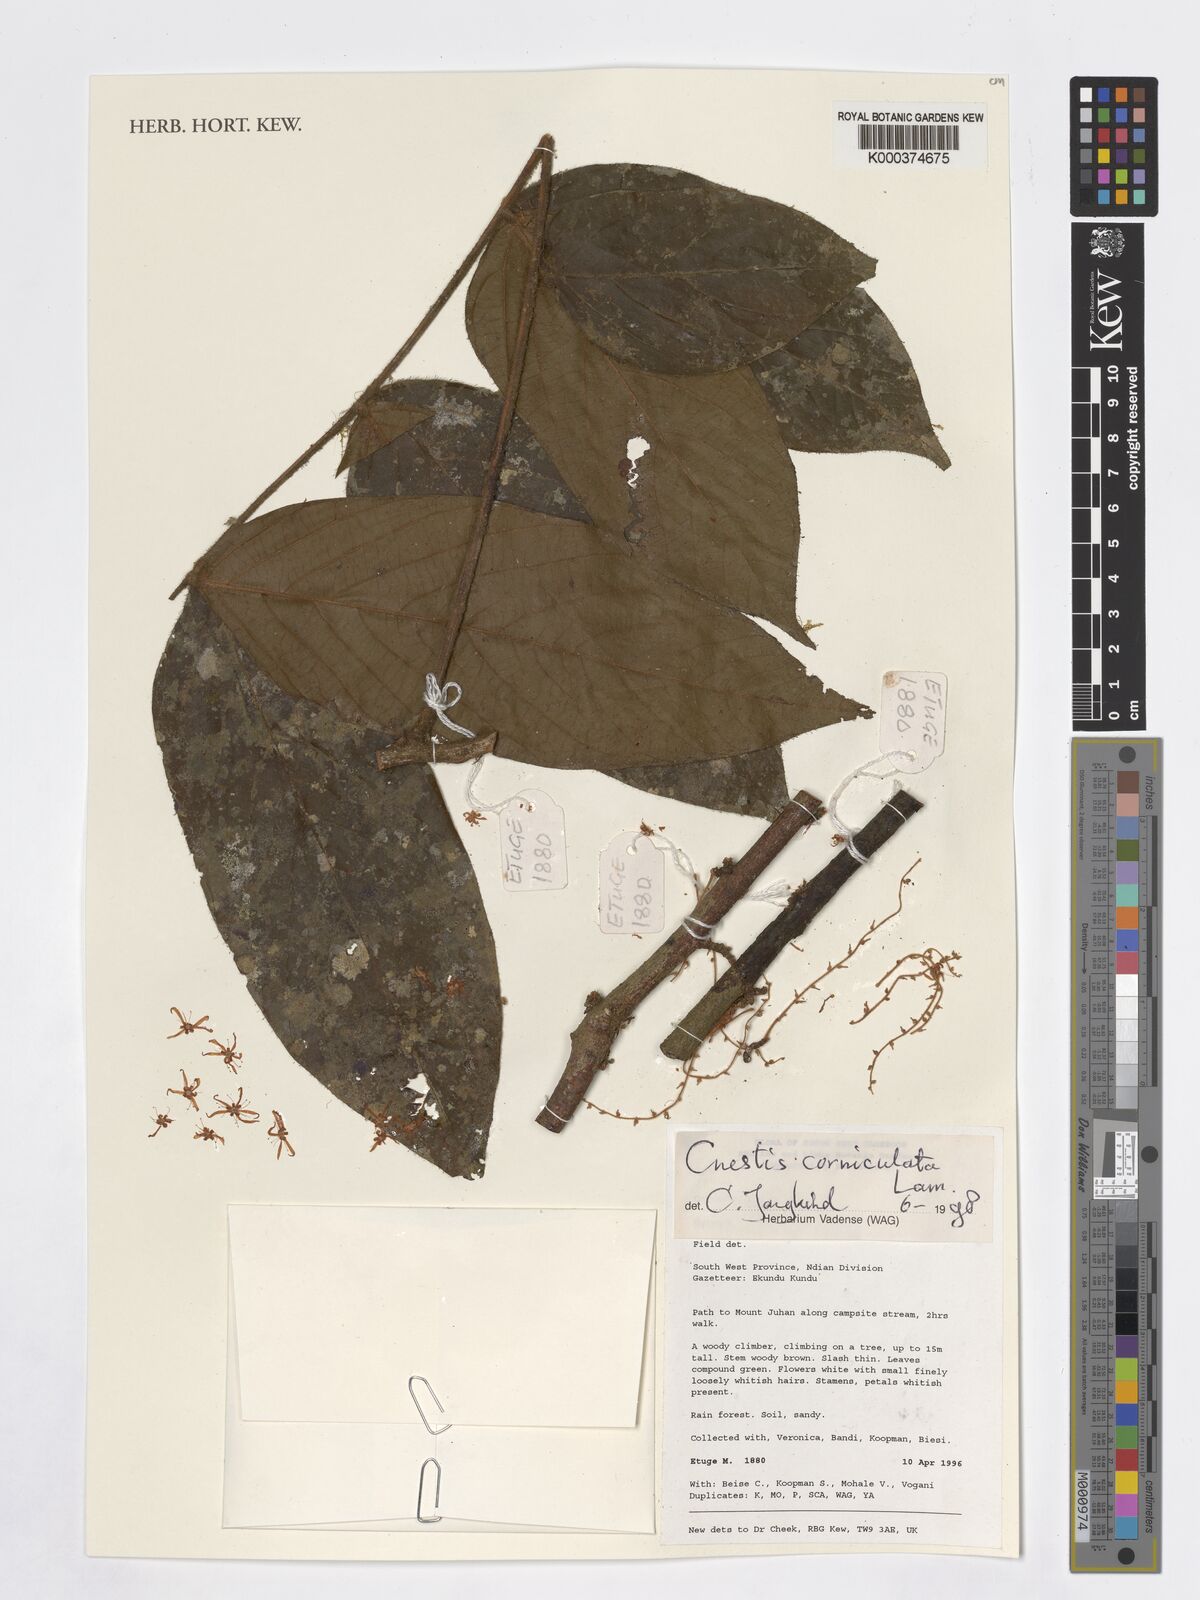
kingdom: Plantae
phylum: Tracheophyta
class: Magnoliopsida
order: Oxalidales
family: Connaraceae
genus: Cnestis
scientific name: Cnestis corniculata
